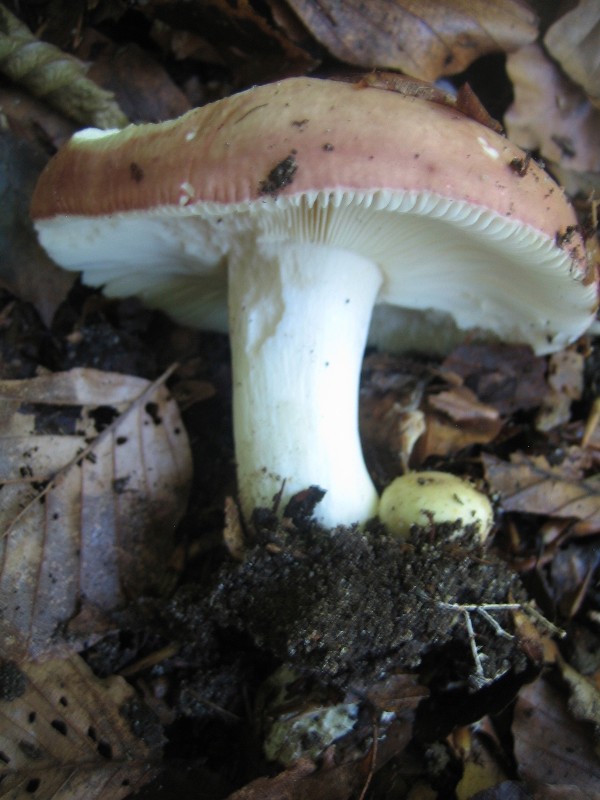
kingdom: Fungi
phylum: Basidiomycota
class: Agaricomycetes
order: Russulales
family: Russulaceae
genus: Russula
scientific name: Russula
